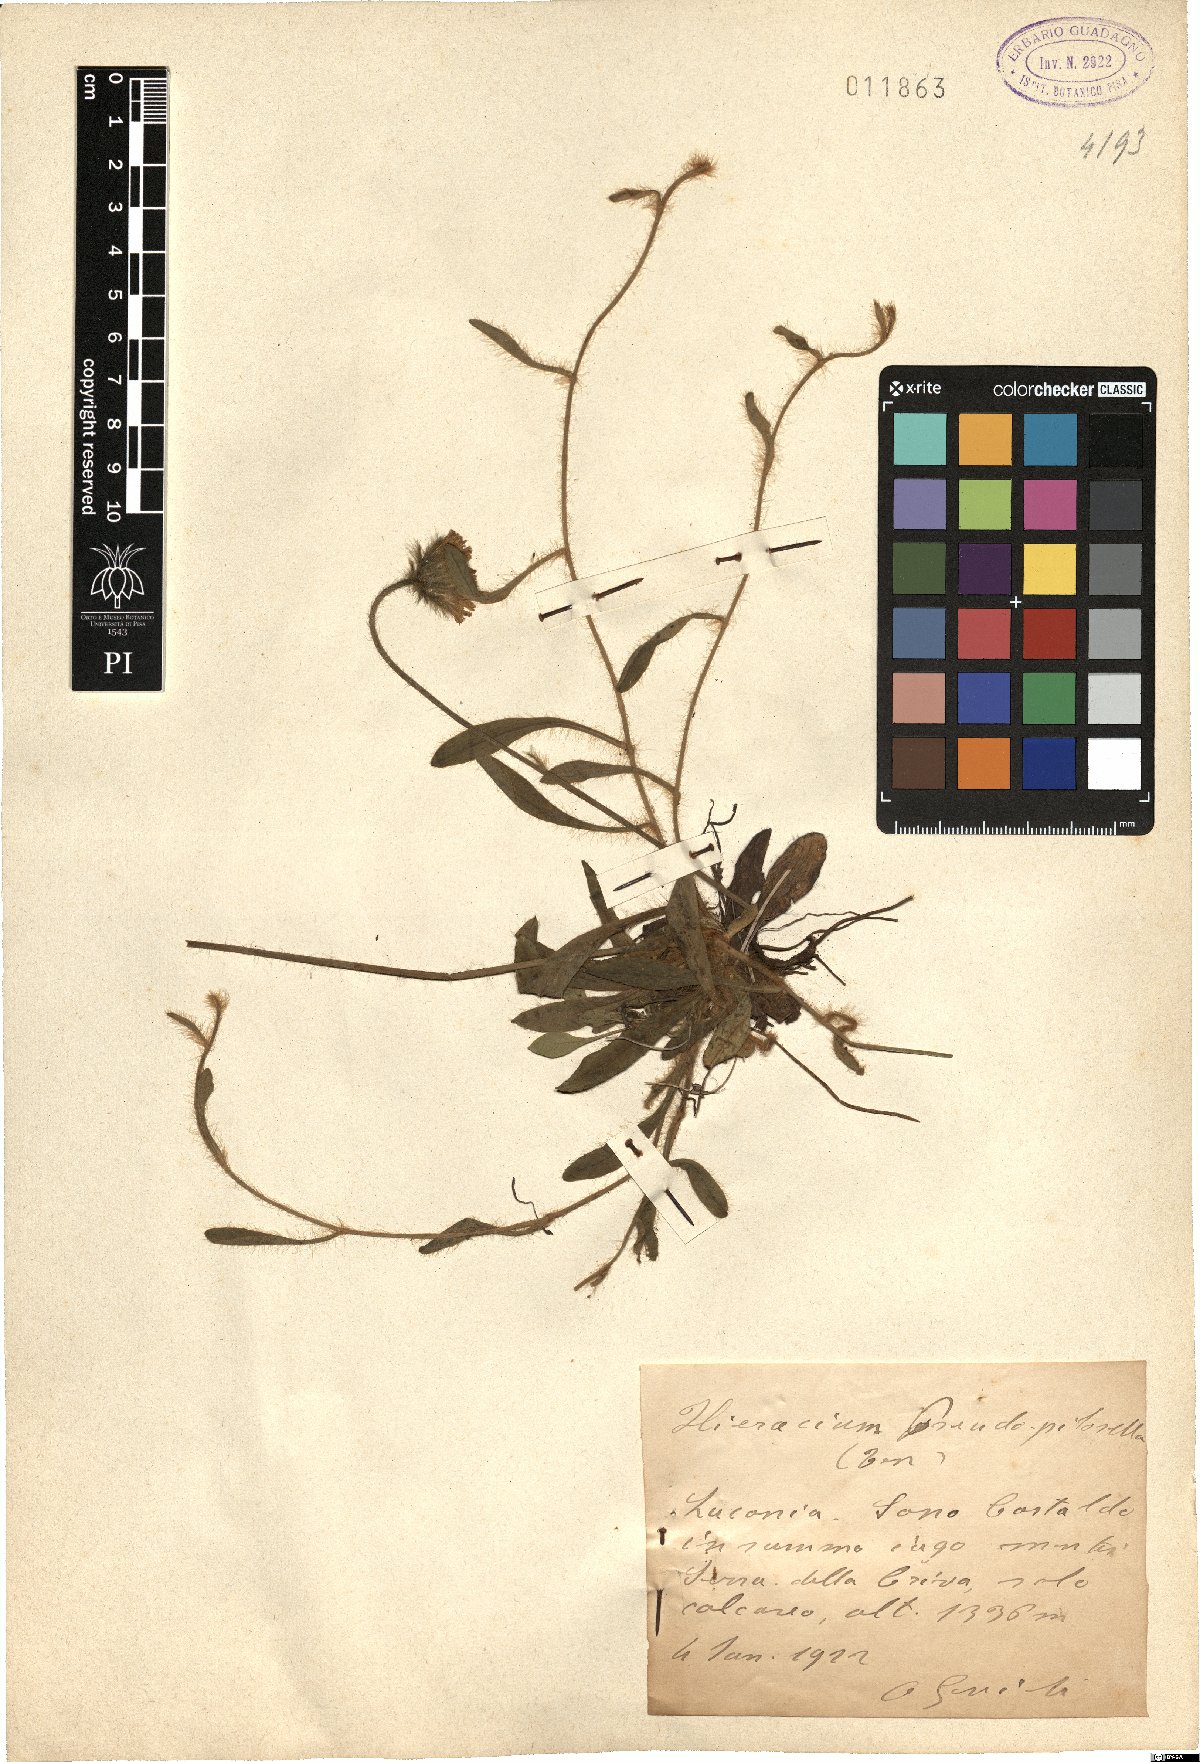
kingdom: Plantae
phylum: Tracheophyta
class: Magnoliopsida
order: Asterales
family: Asteraceae
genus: Pilosella
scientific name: Pilosella pseudopilosella
